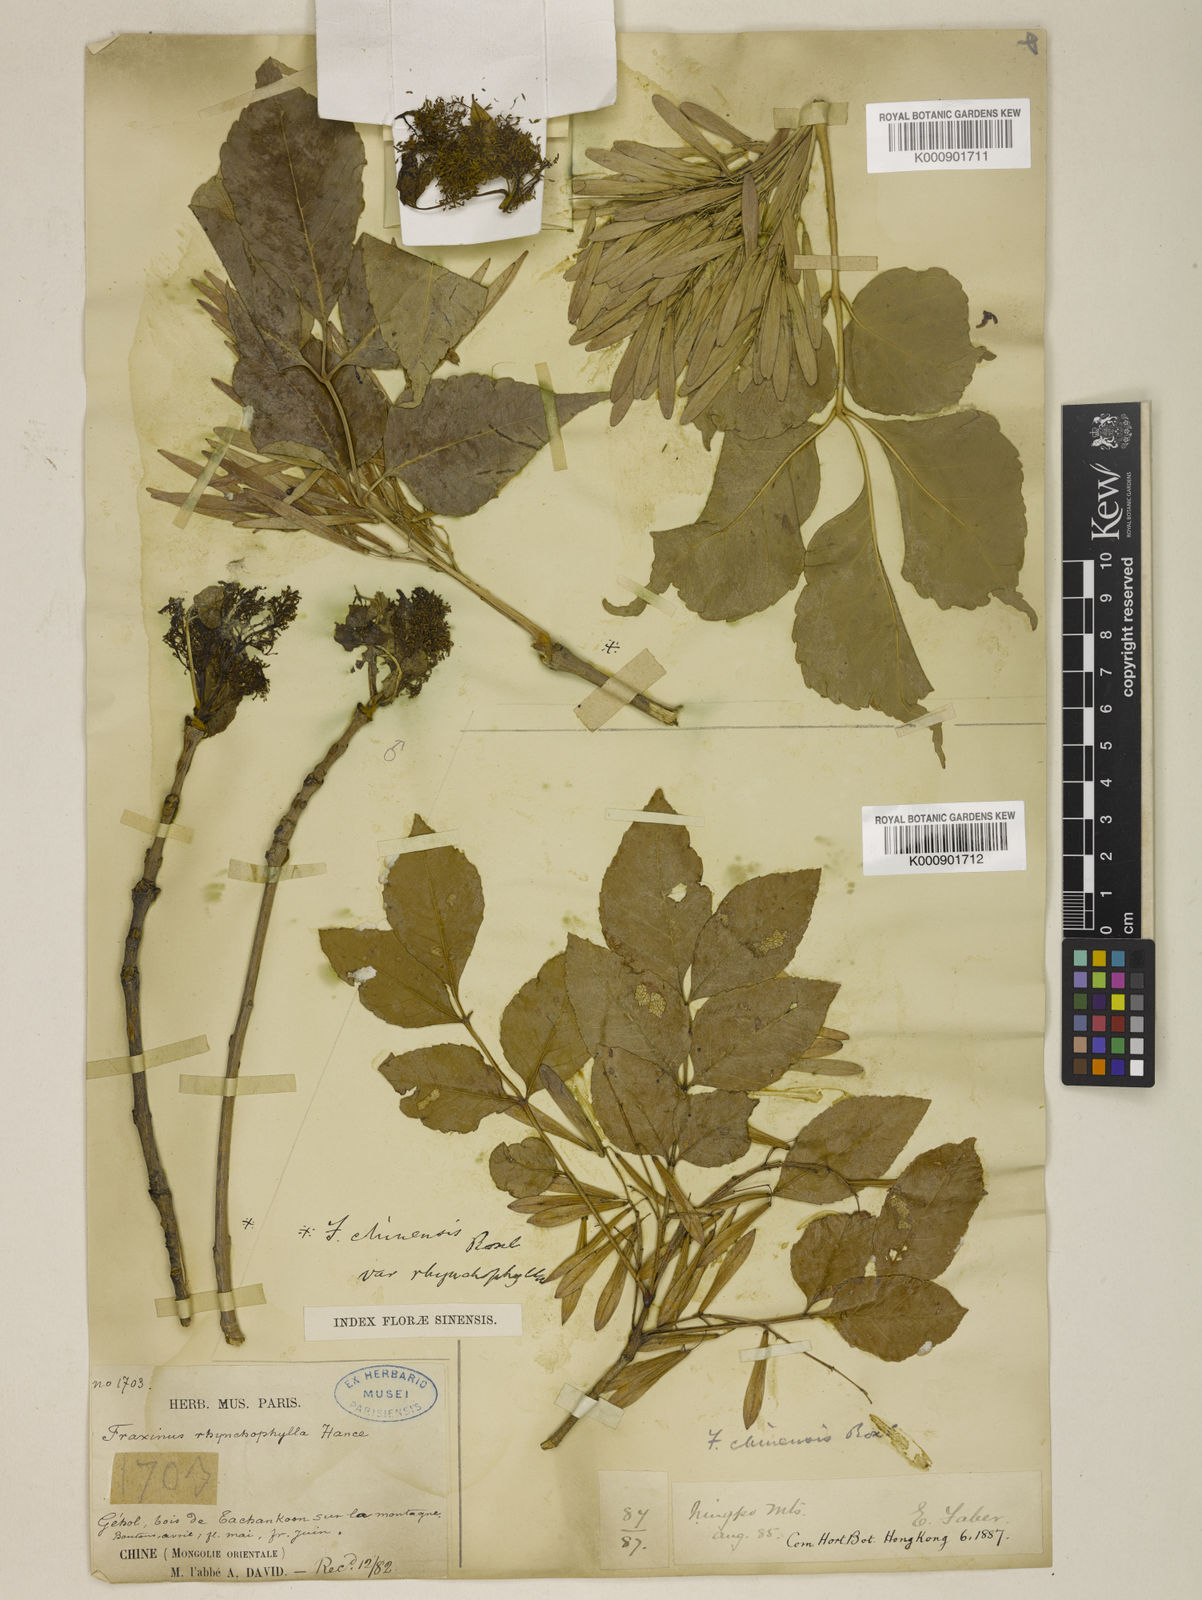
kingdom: Plantae
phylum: Tracheophyta
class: Magnoliopsida
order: Lamiales
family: Oleaceae
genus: Fraxinus
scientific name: Fraxinus chinensis
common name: Chinese ash
